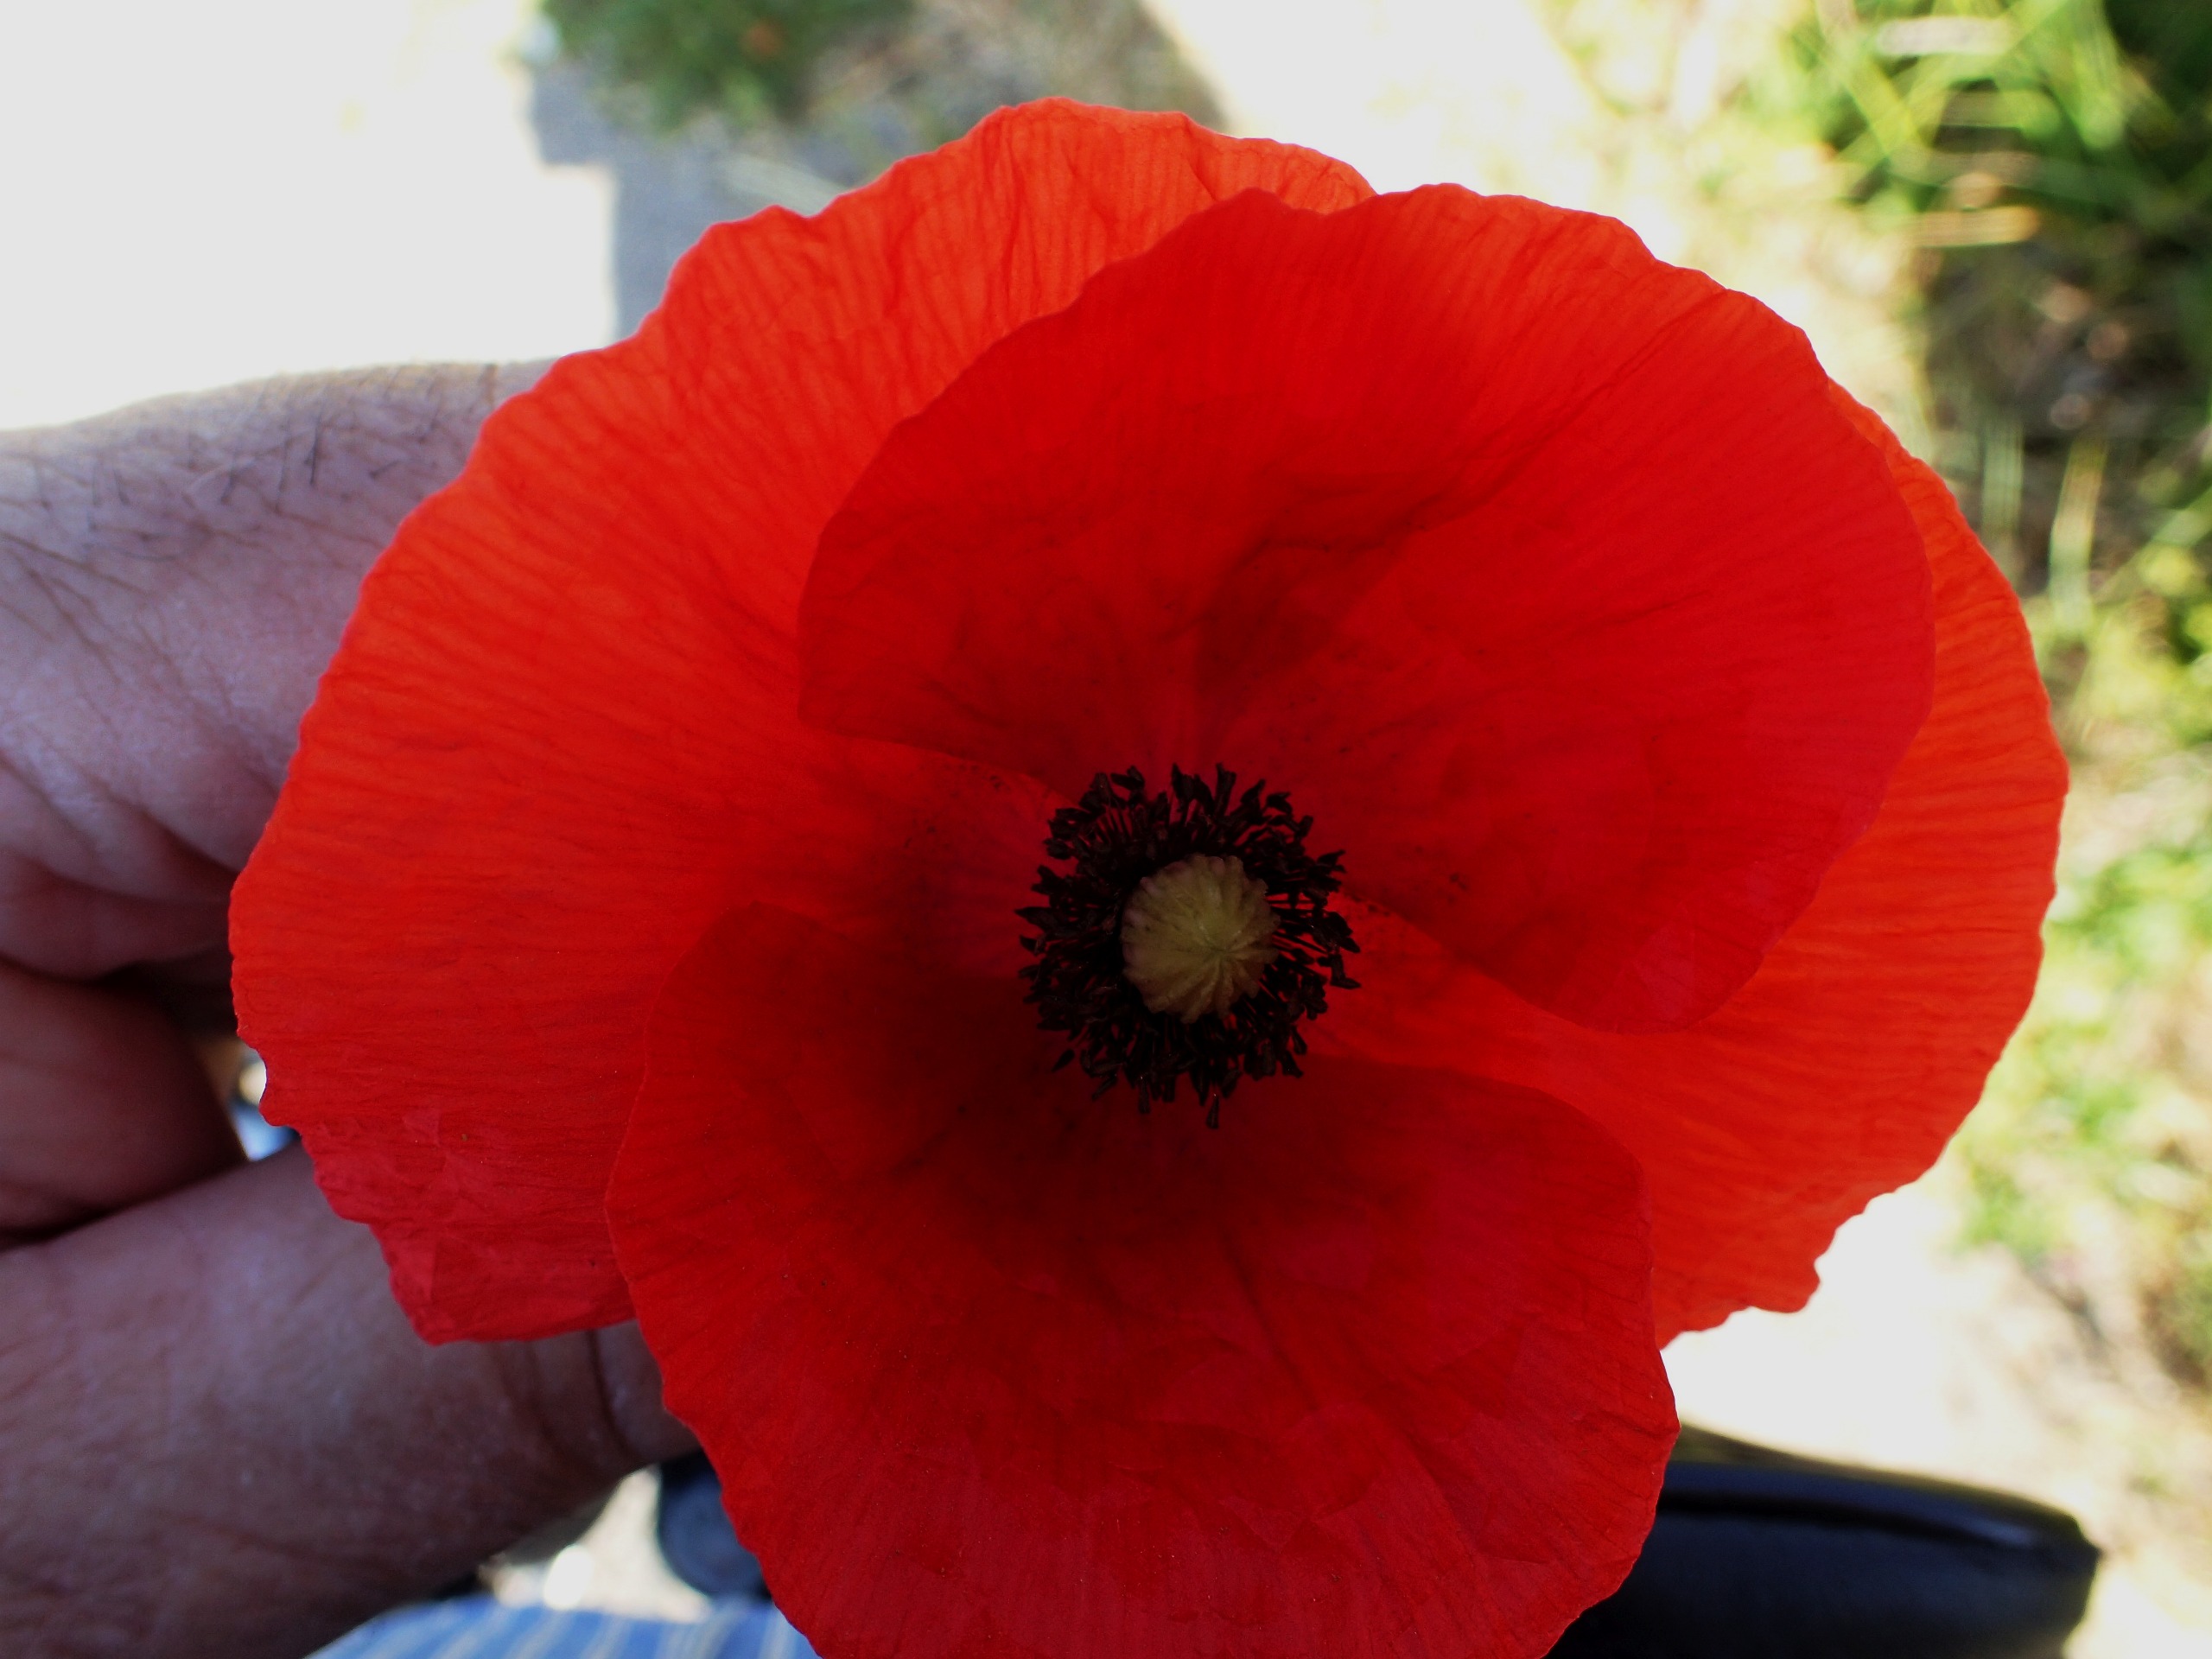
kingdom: Plantae
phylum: Tracheophyta
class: Magnoliopsida
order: Ranunculales
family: Papaveraceae
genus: Papaver
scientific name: Papaver rhoeas
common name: Korn-valmue
